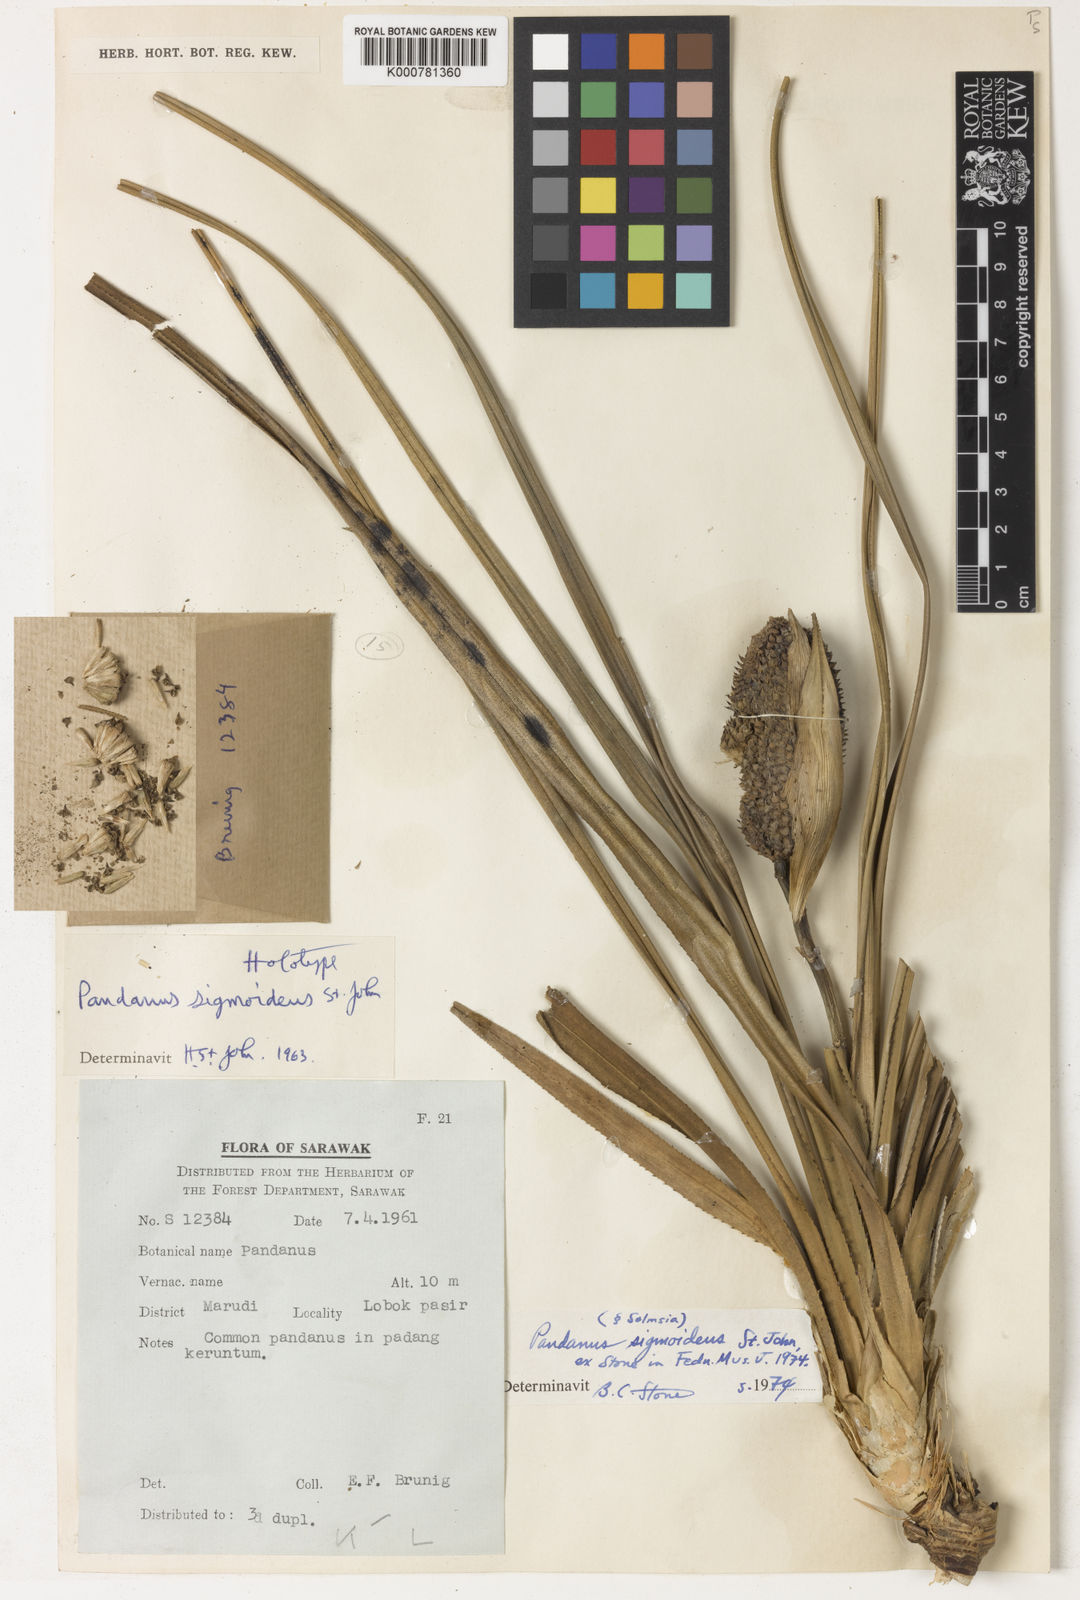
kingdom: Plantae
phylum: Tracheophyta
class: Liliopsida
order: Pandanales
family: Pandanaceae
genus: Pandanus
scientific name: Pandanus yvanii
